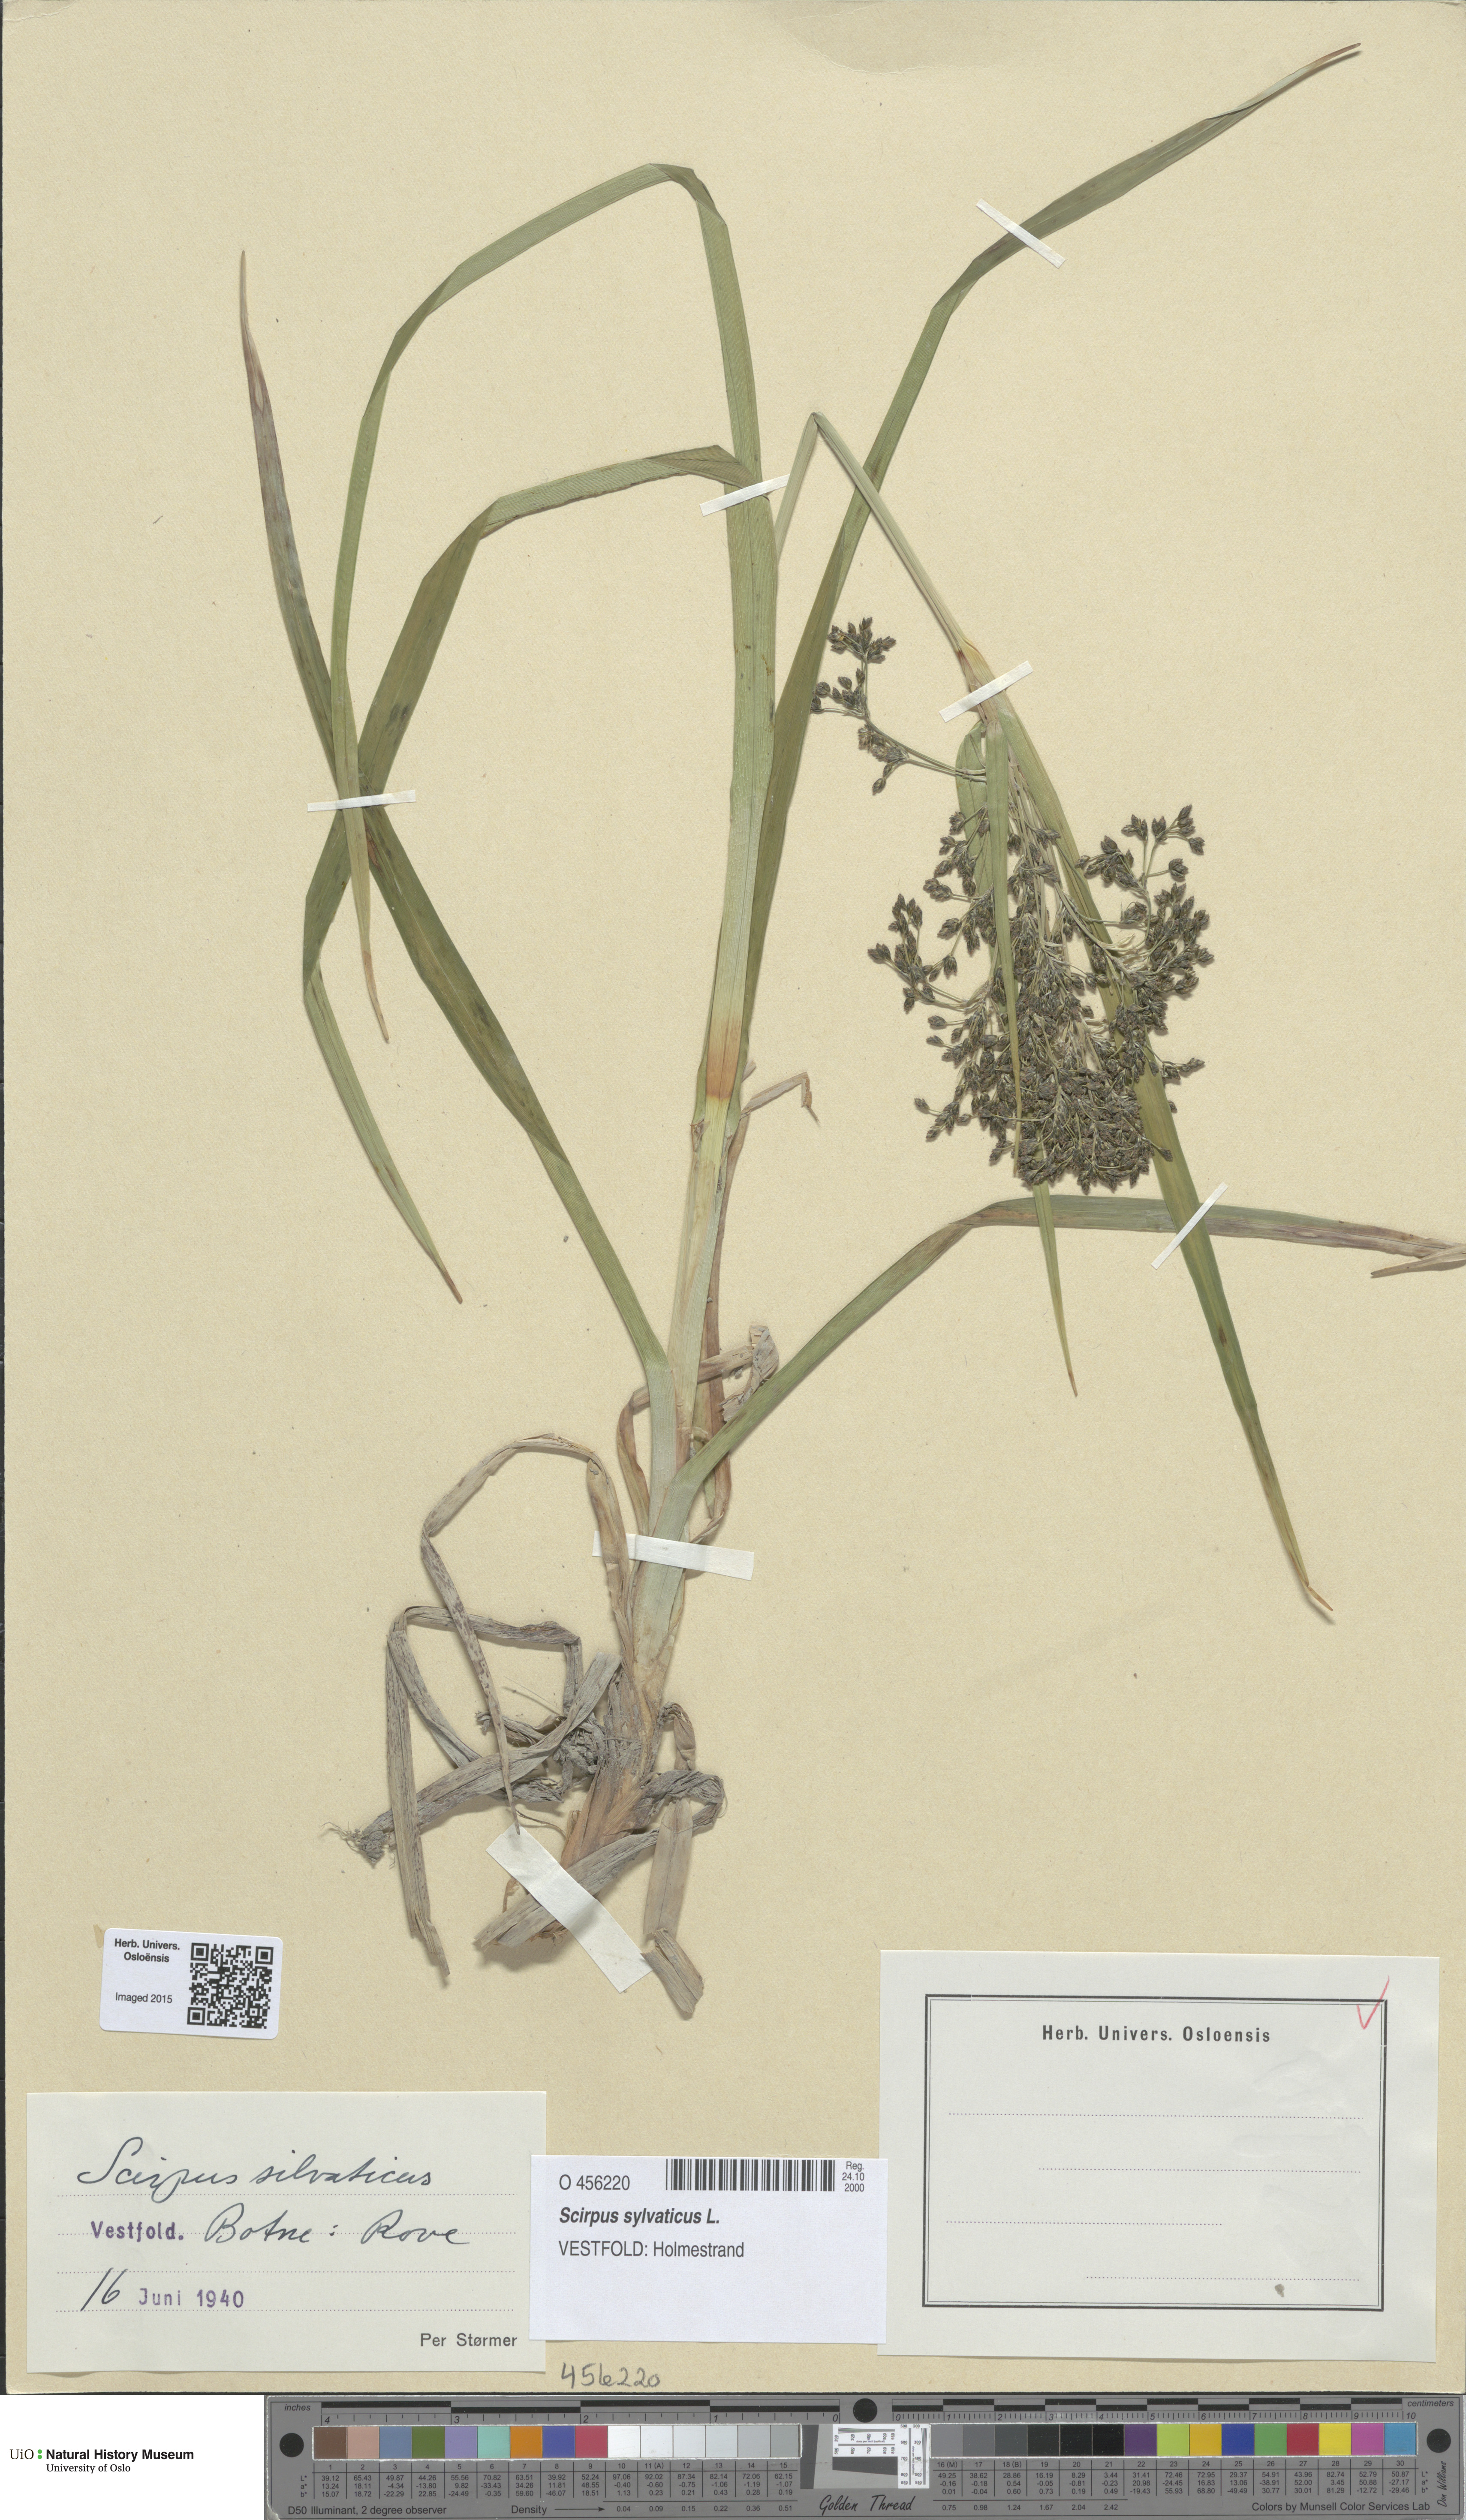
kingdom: Plantae
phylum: Tracheophyta
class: Liliopsida
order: Poales
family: Cyperaceae
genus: Scirpus
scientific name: Scirpus sylvaticus
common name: Wood club-rush
